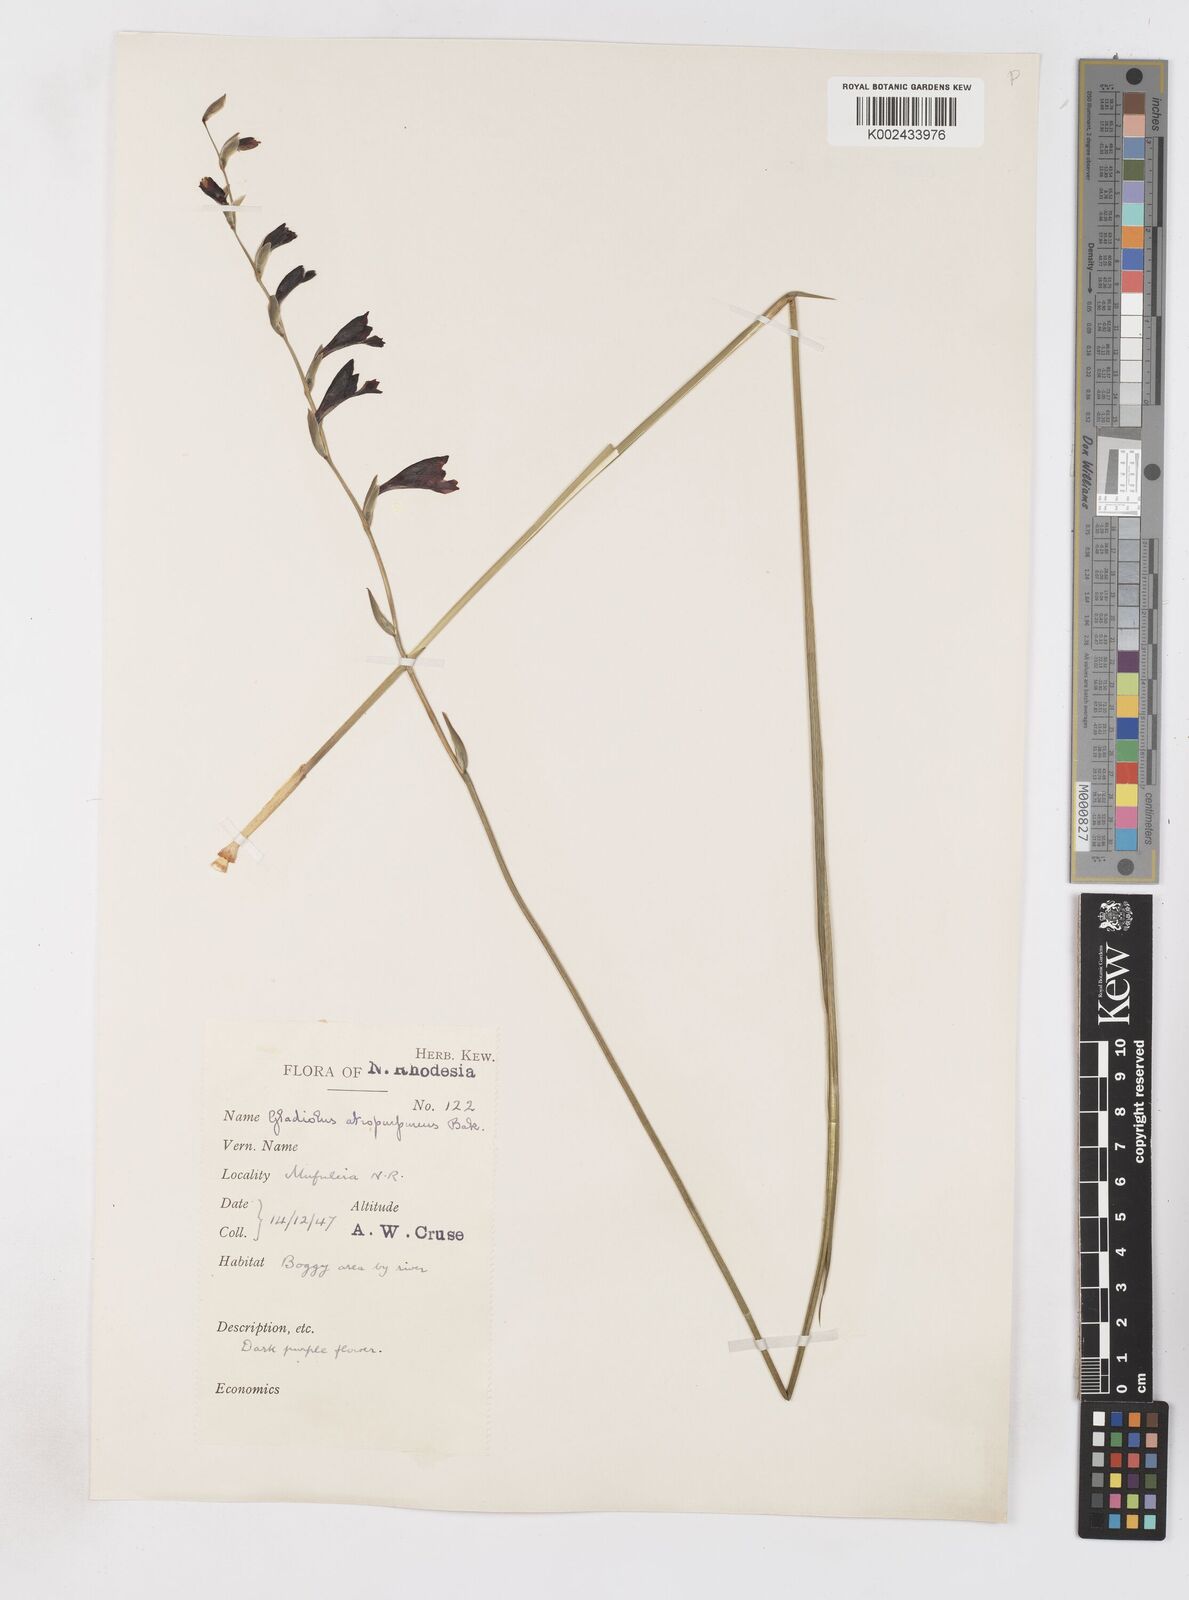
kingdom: Plantae
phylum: Tracheophyta
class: Liliopsida
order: Asparagales
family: Iridaceae
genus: Gladiolus
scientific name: Gladiolus atropurpureus
